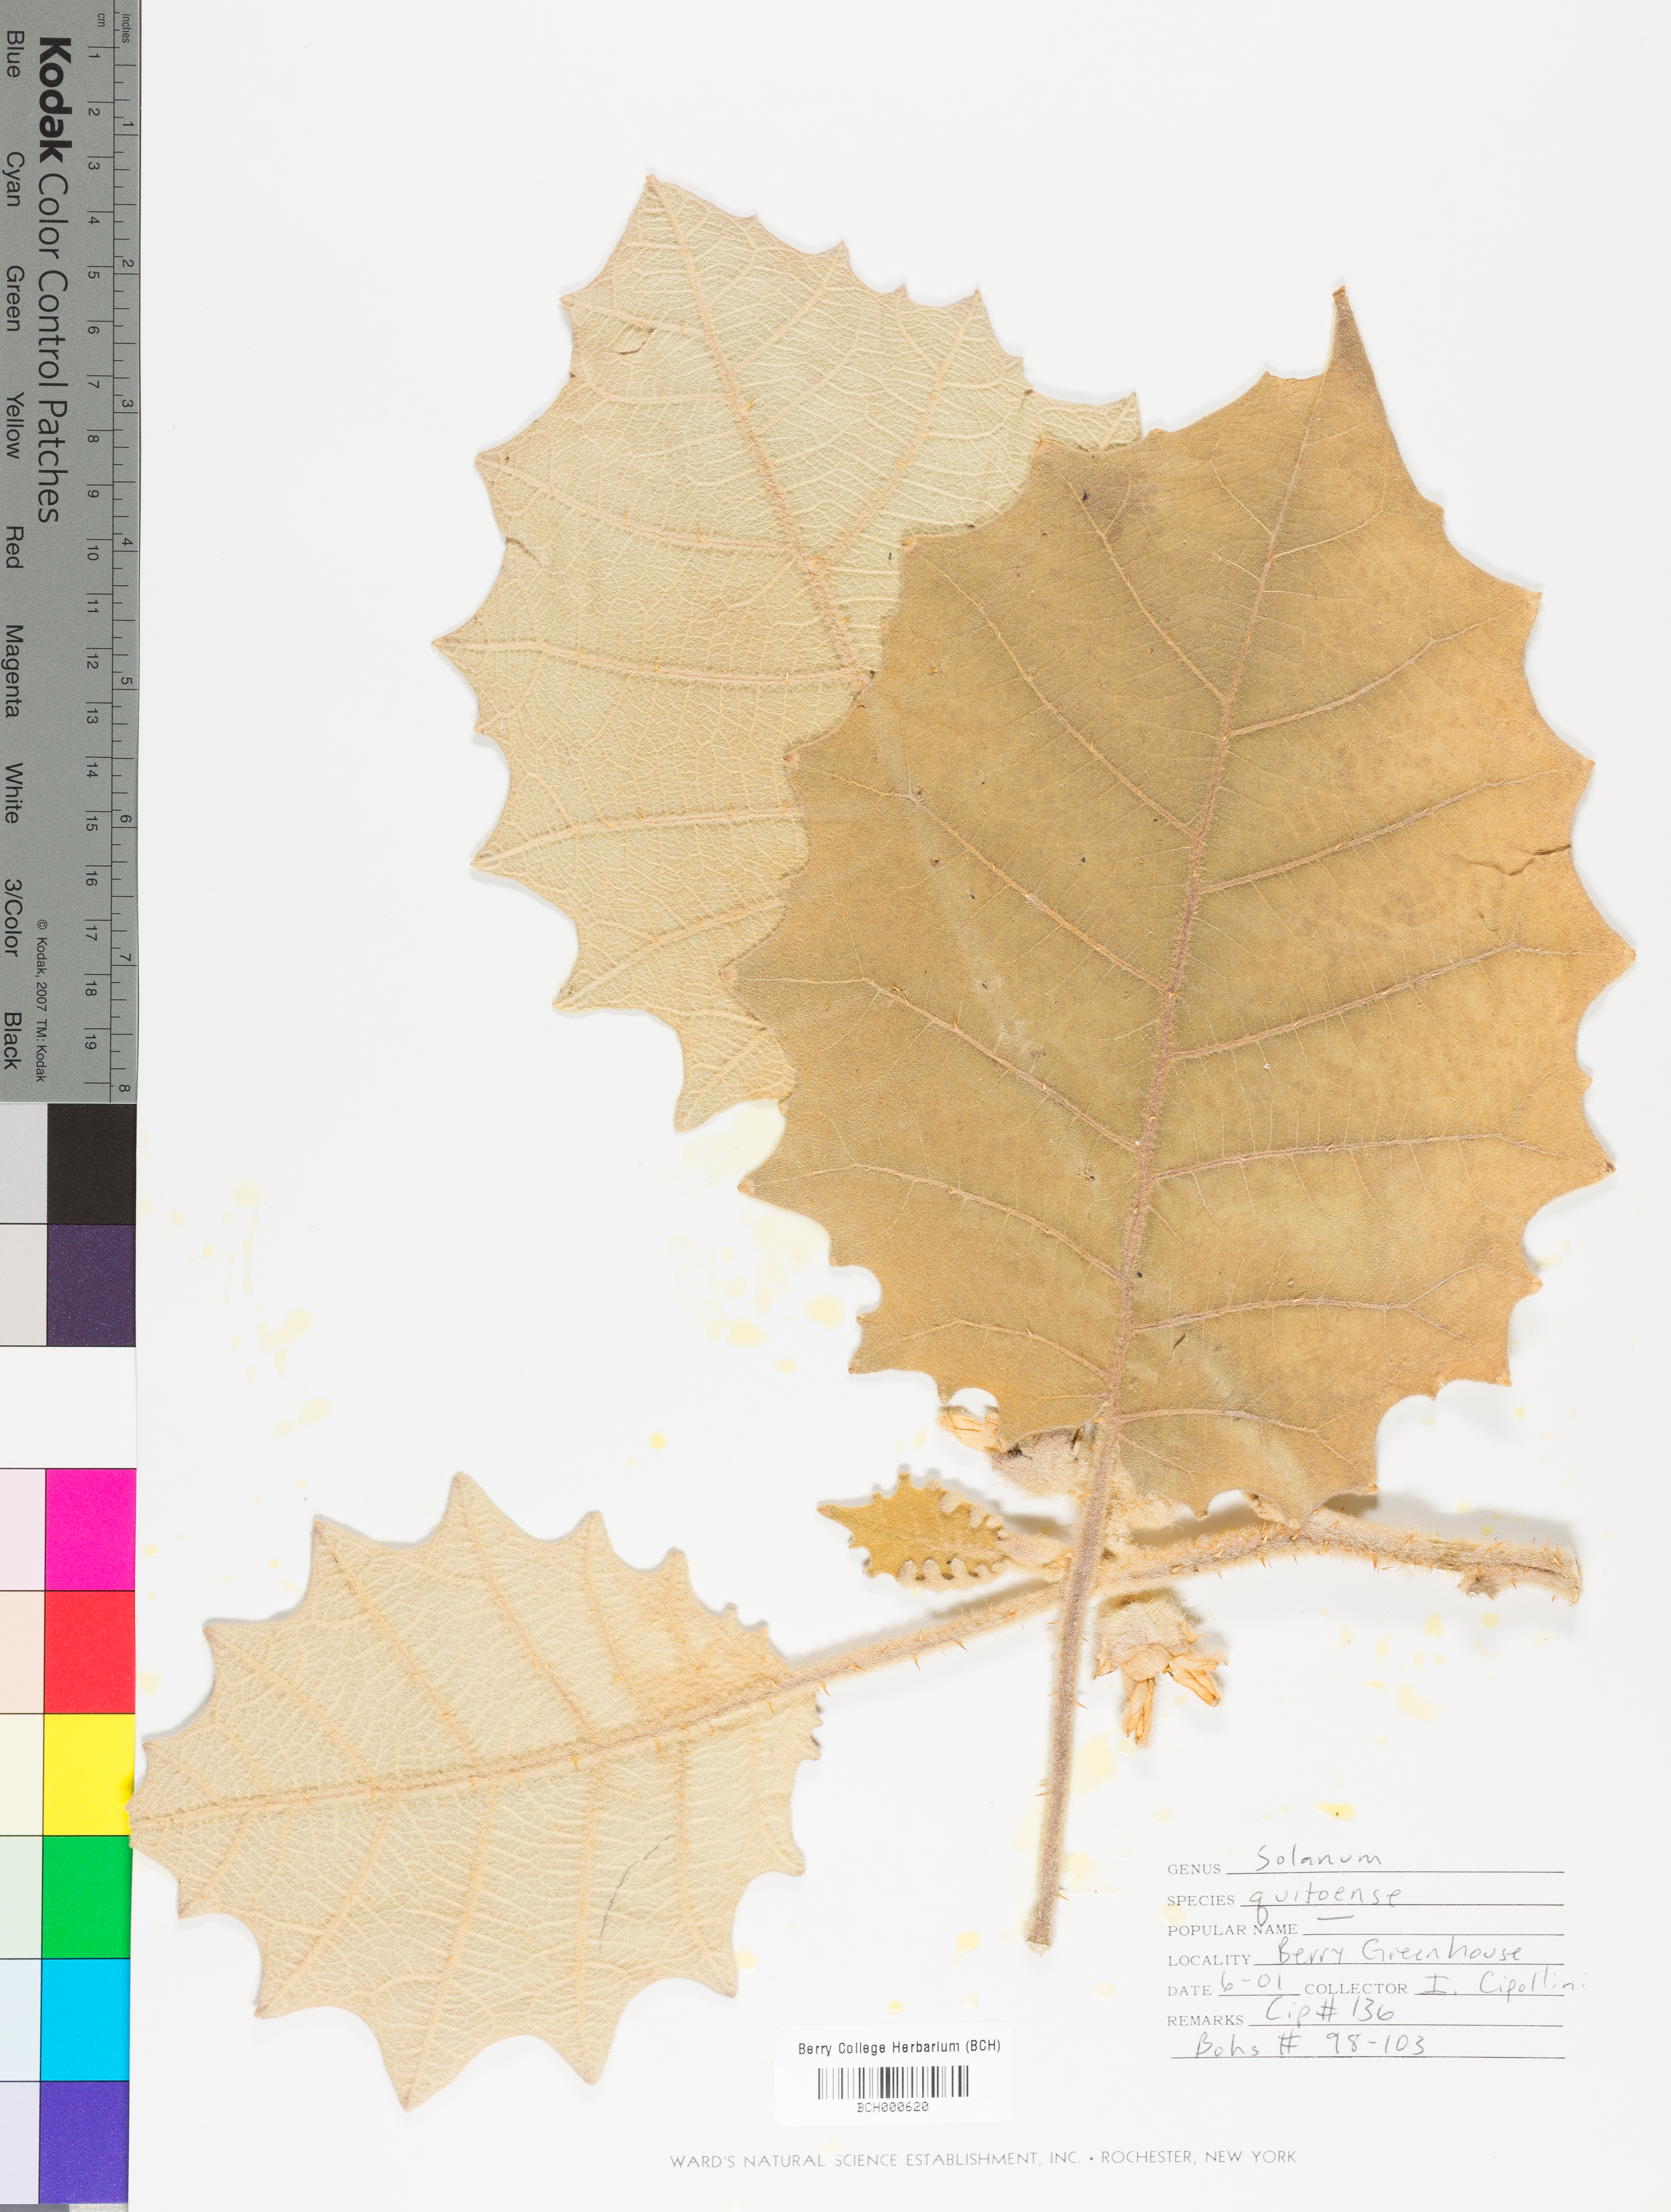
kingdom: Plantae
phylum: Tracheophyta
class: Magnoliopsida
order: Solanales
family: Solanaceae
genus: Solanum
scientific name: Solanum quitoense
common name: Quito-orange
